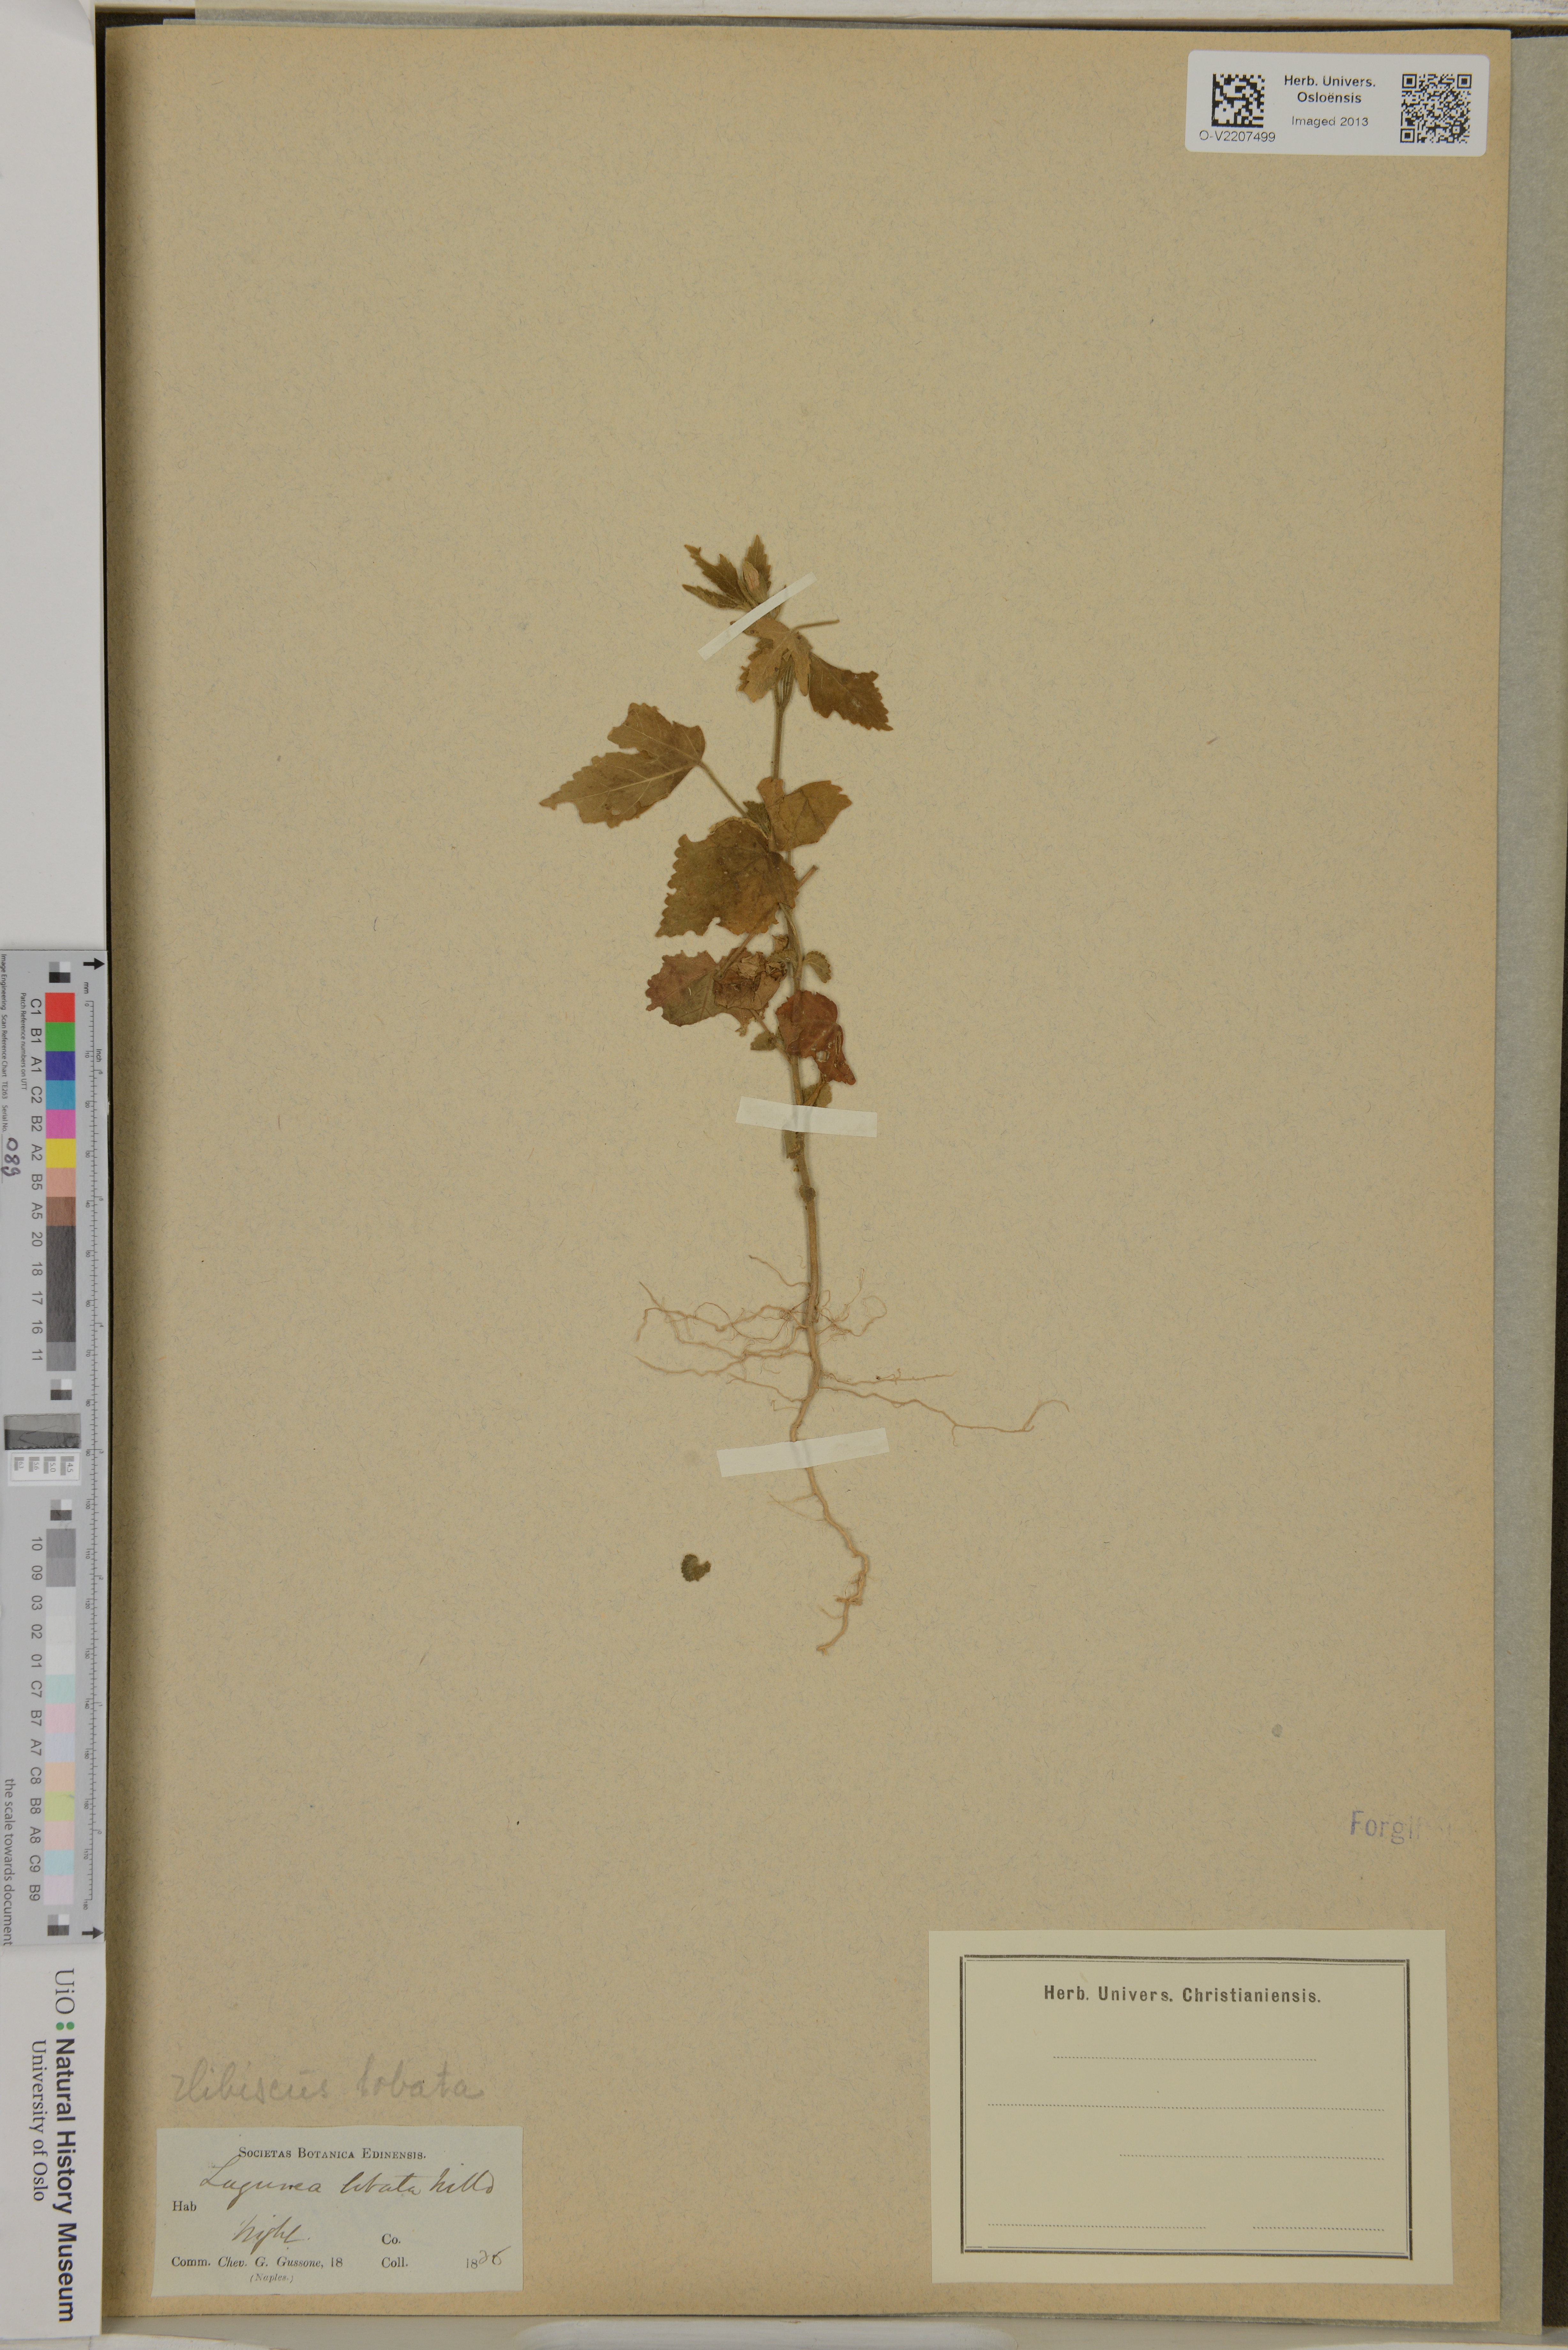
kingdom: Plantae
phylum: Tracheophyta
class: Magnoliopsida
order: Malvales
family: Malvaceae
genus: Hibiscus
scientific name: Hibiscus lobatus
